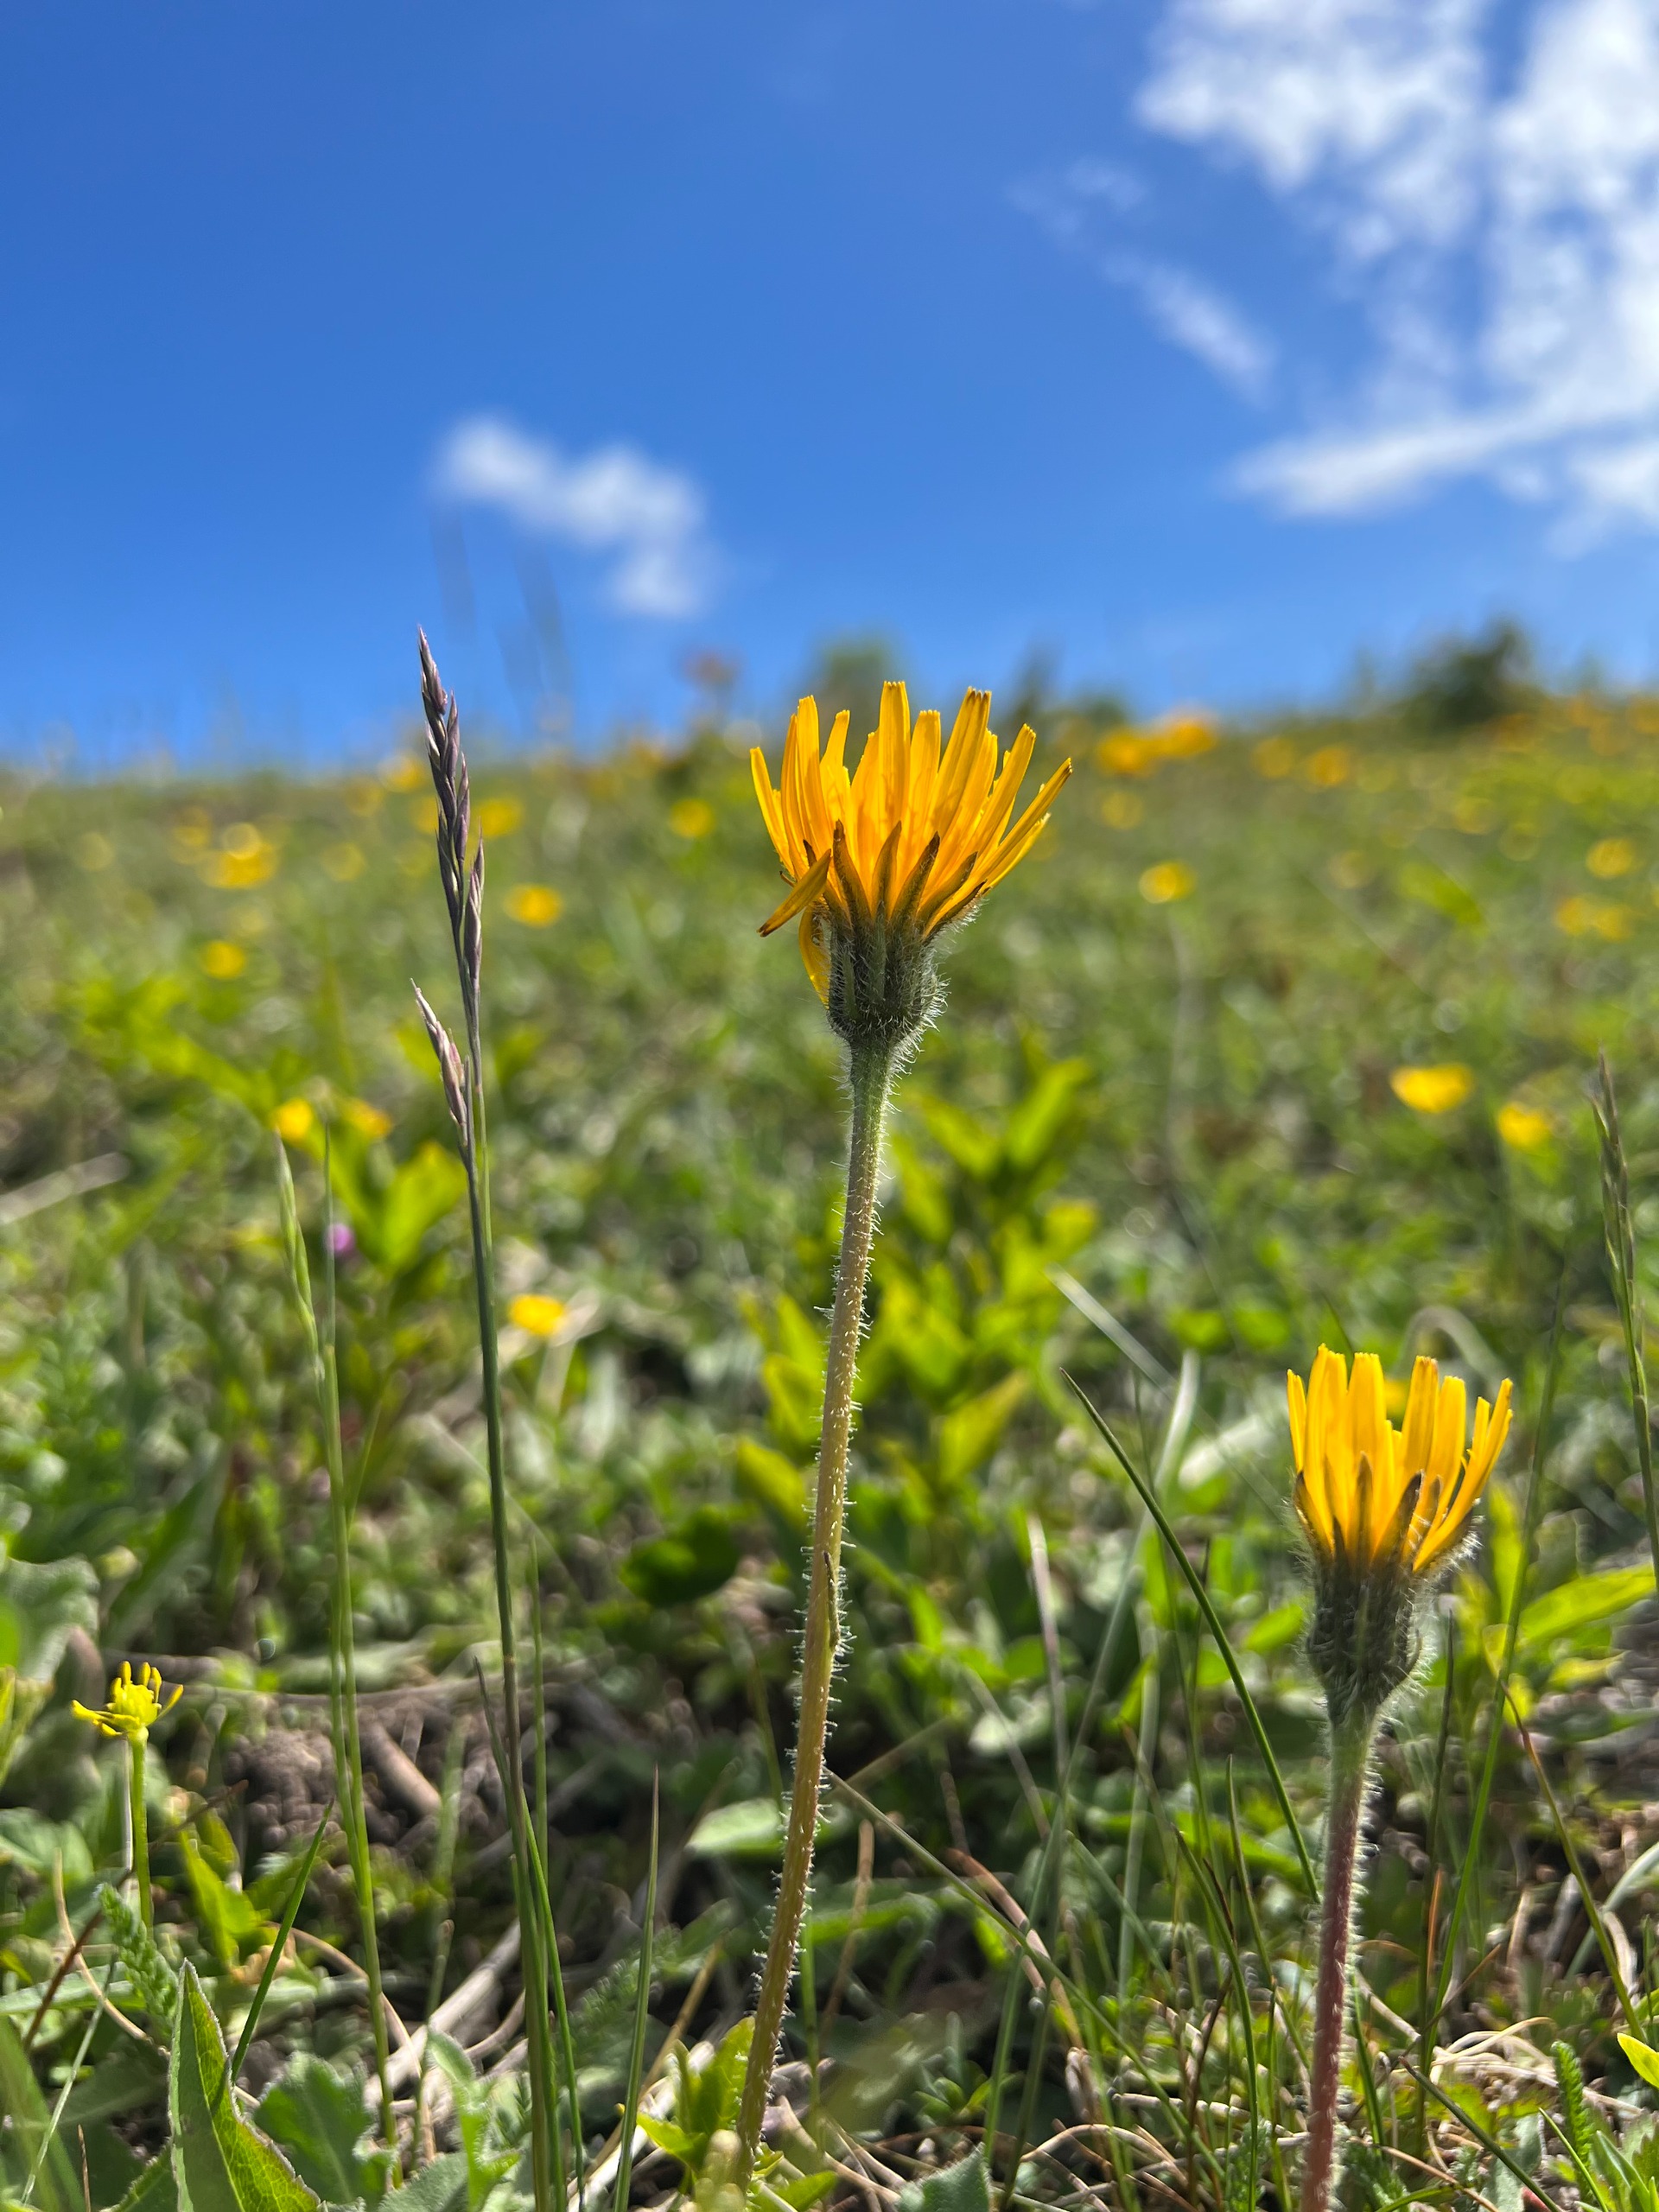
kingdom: Plantae
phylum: Tracheophyta
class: Magnoliopsida
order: Asterales
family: Asteraceae
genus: Leontodon
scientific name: Leontodon hispidus
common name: Stivhåret borst
